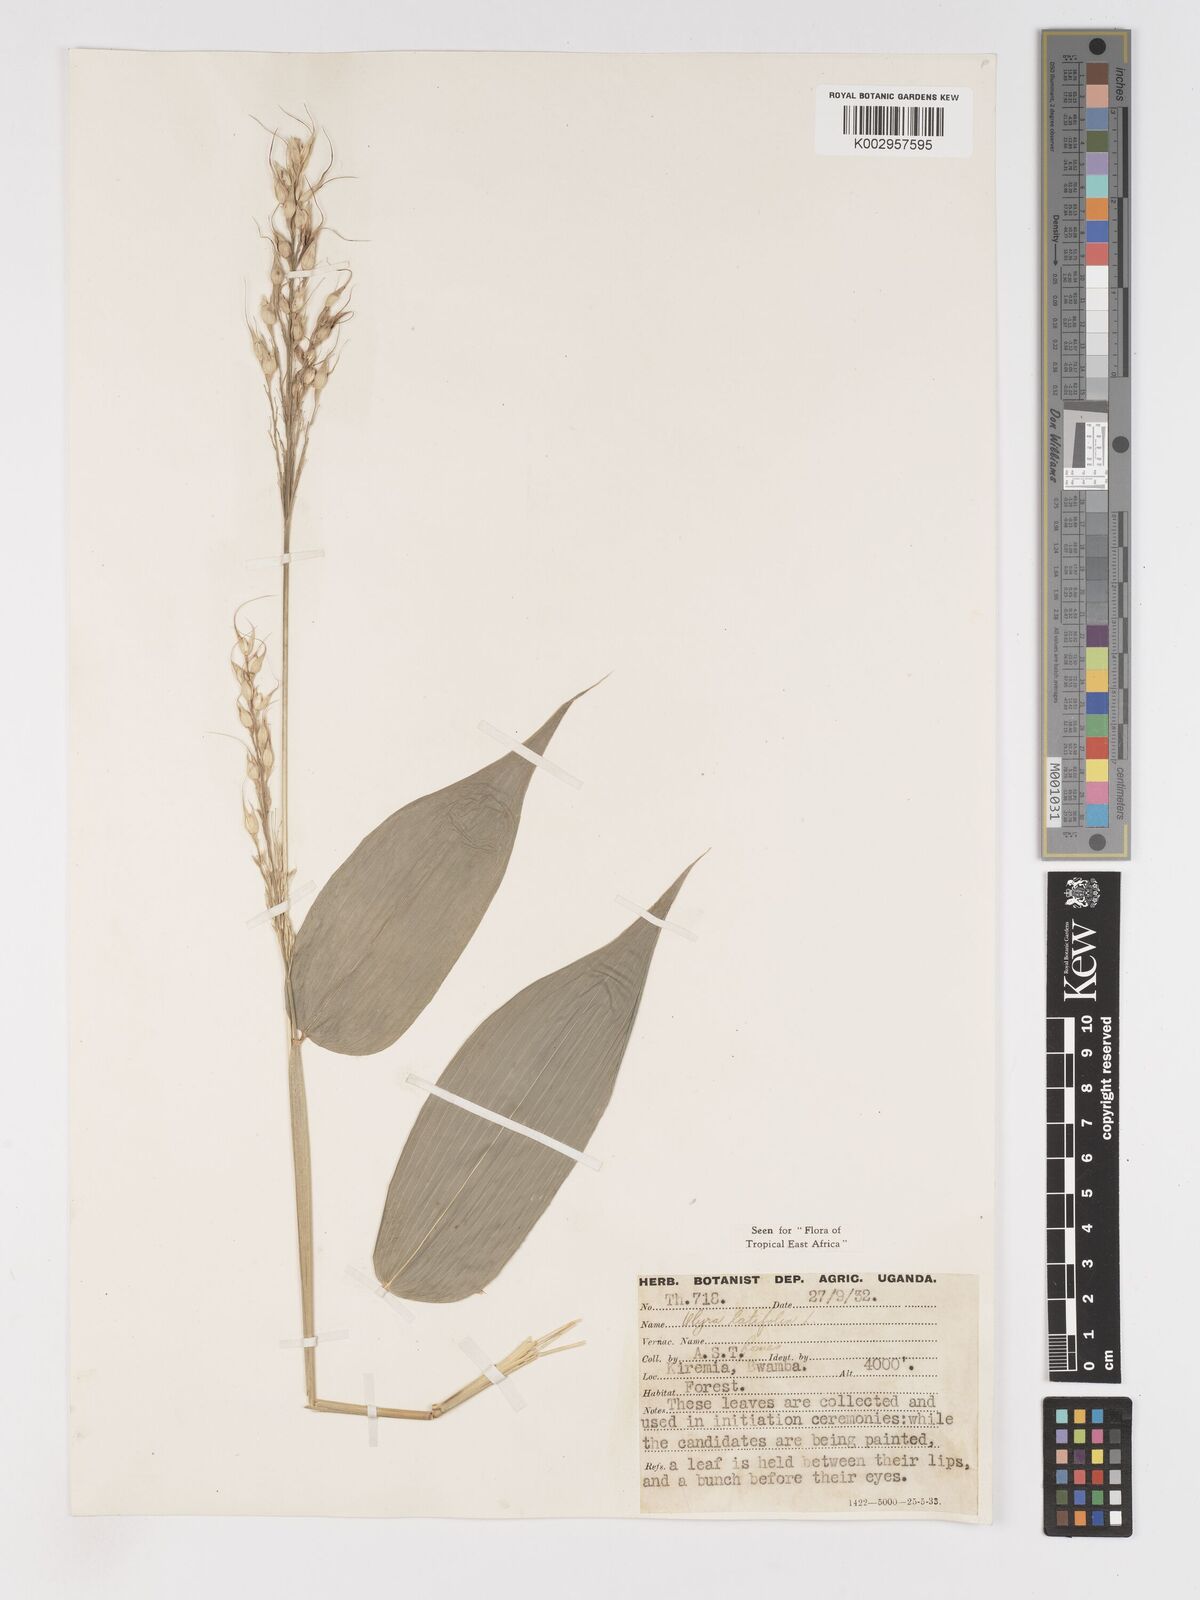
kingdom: Plantae
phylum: Tracheophyta
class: Liliopsida
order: Poales
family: Poaceae
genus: Olyra
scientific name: Olyra latifolia
